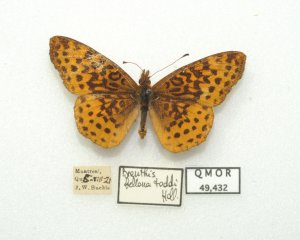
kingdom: Animalia
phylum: Arthropoda
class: Insecta
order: Lepidoptera
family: Nymphalidae
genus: Clossiana
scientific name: Clossiana toddi
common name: Meadow Fritillary
